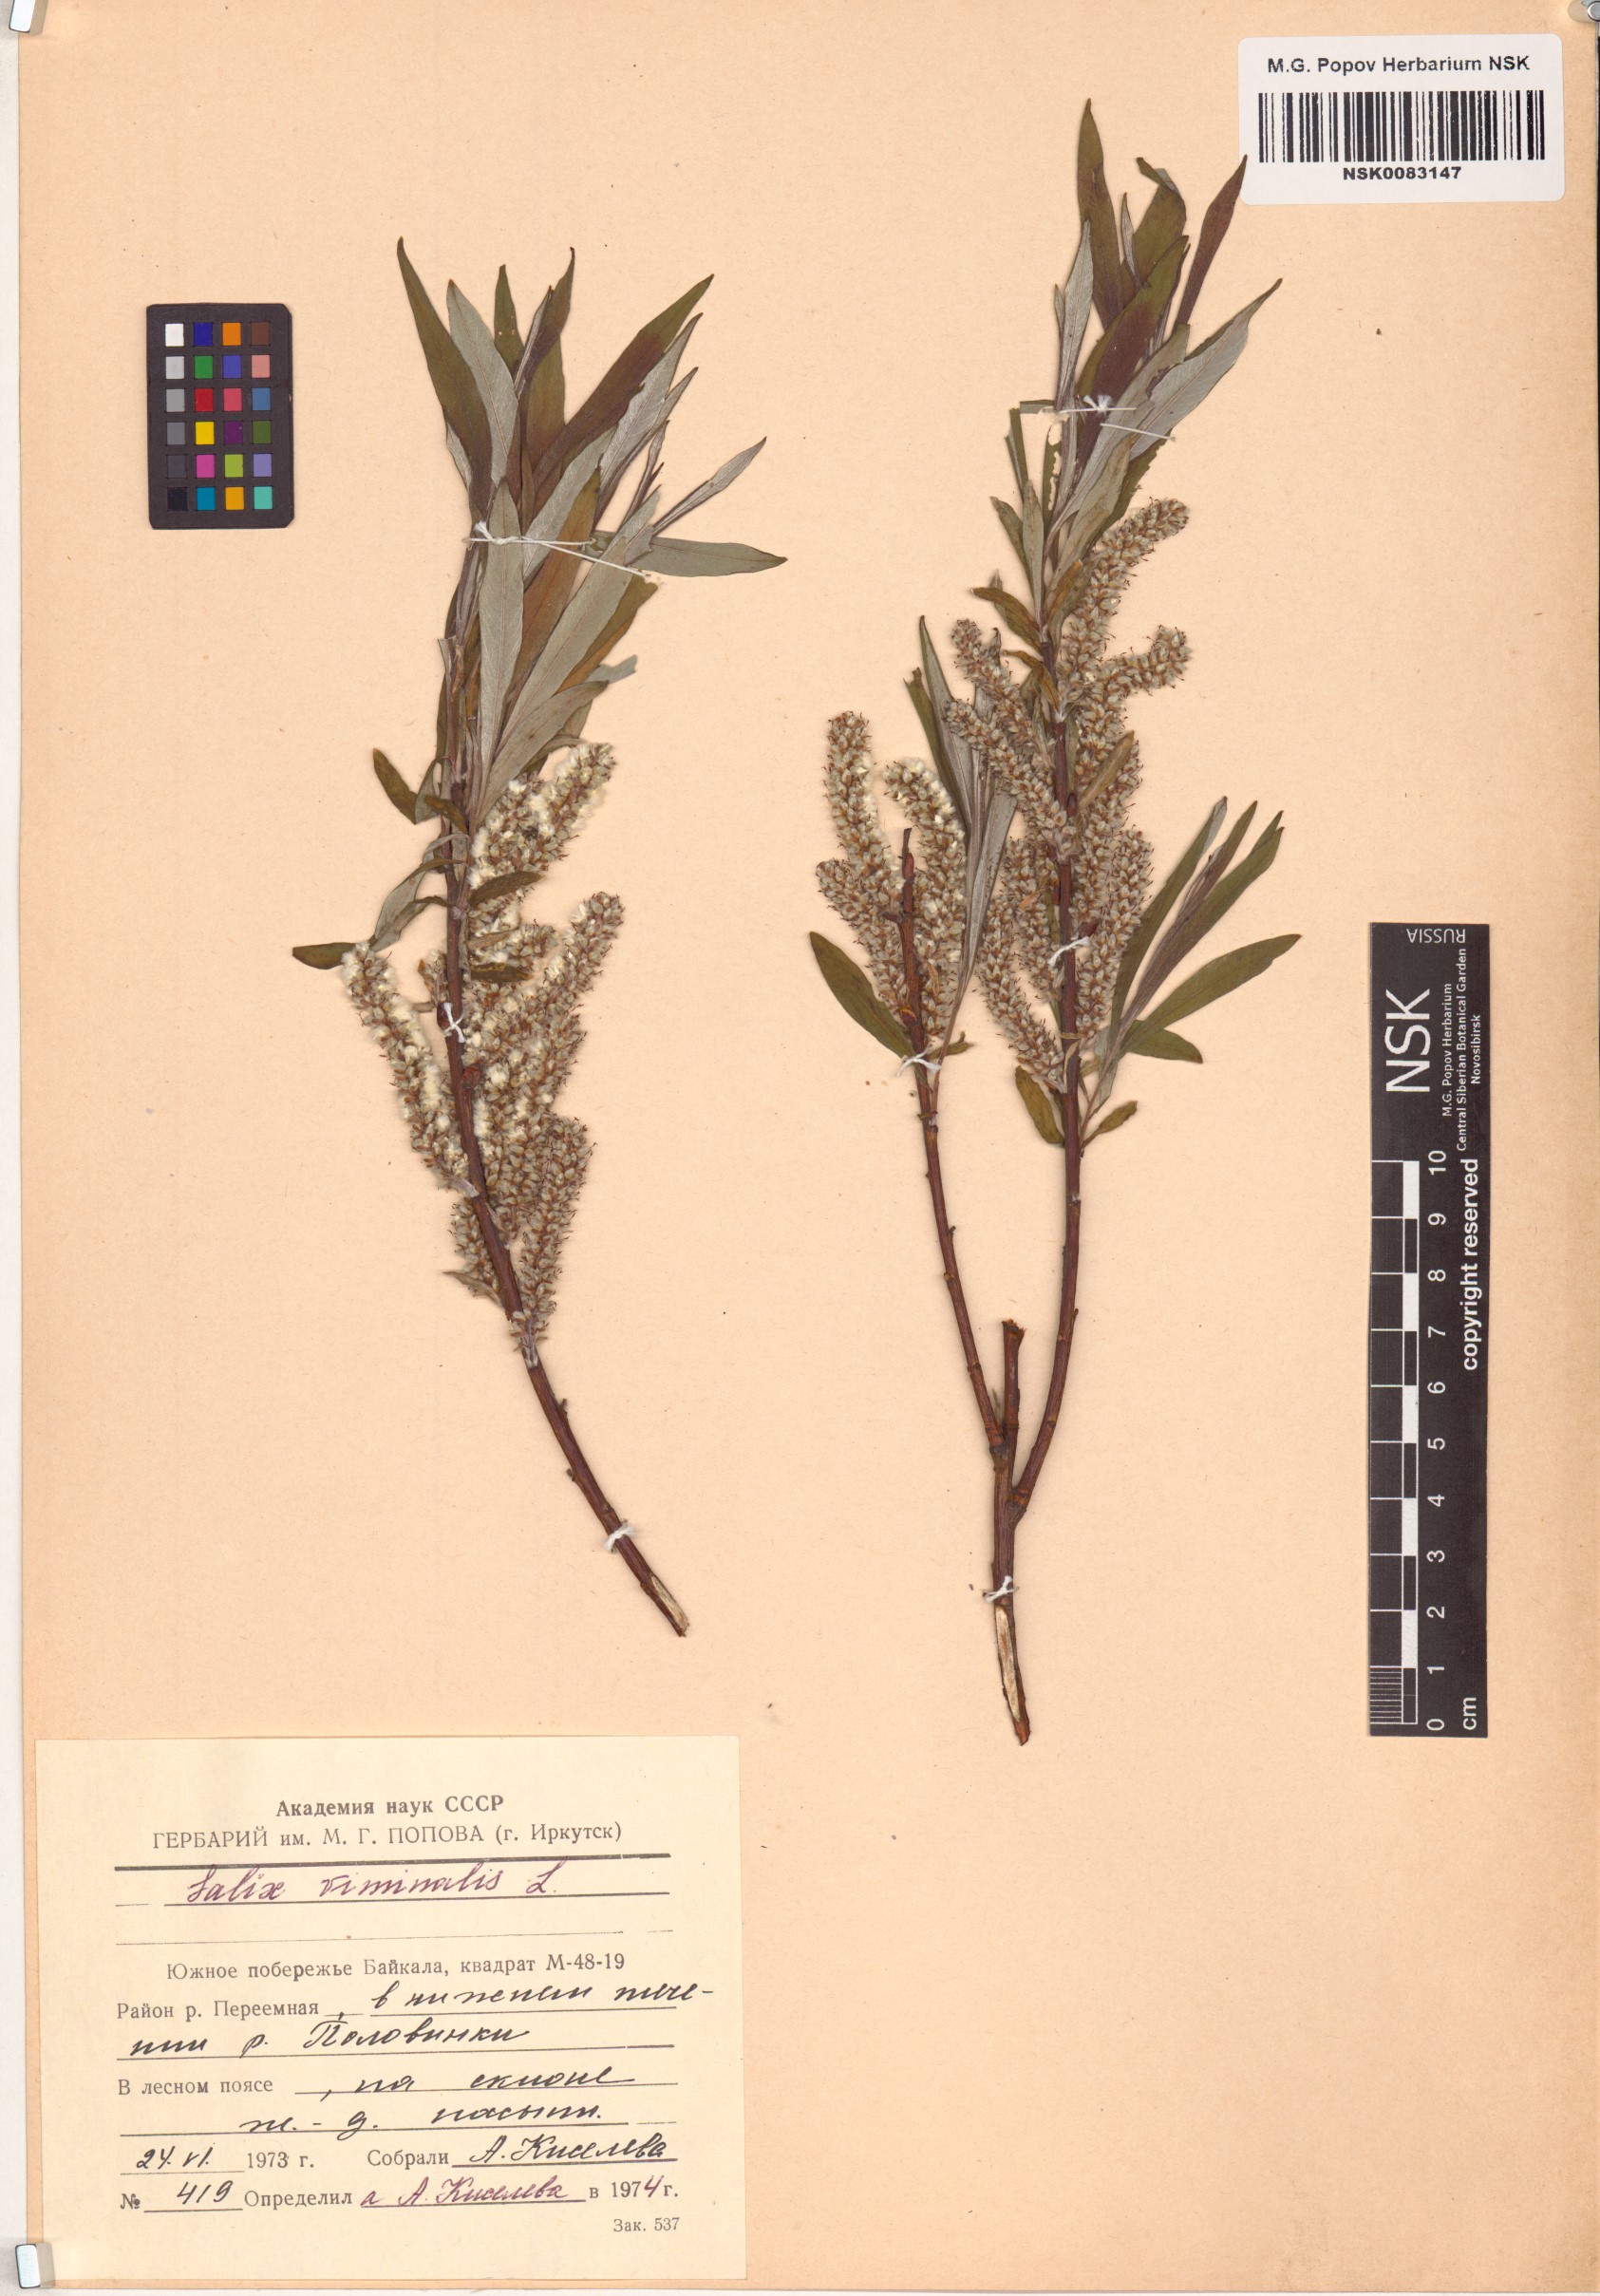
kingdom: Plantae
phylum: Tracheophyta
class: Magnoliopsida
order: Malpighiales
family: Salicaceae
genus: Salix
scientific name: Salix viminalis
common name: Osier
